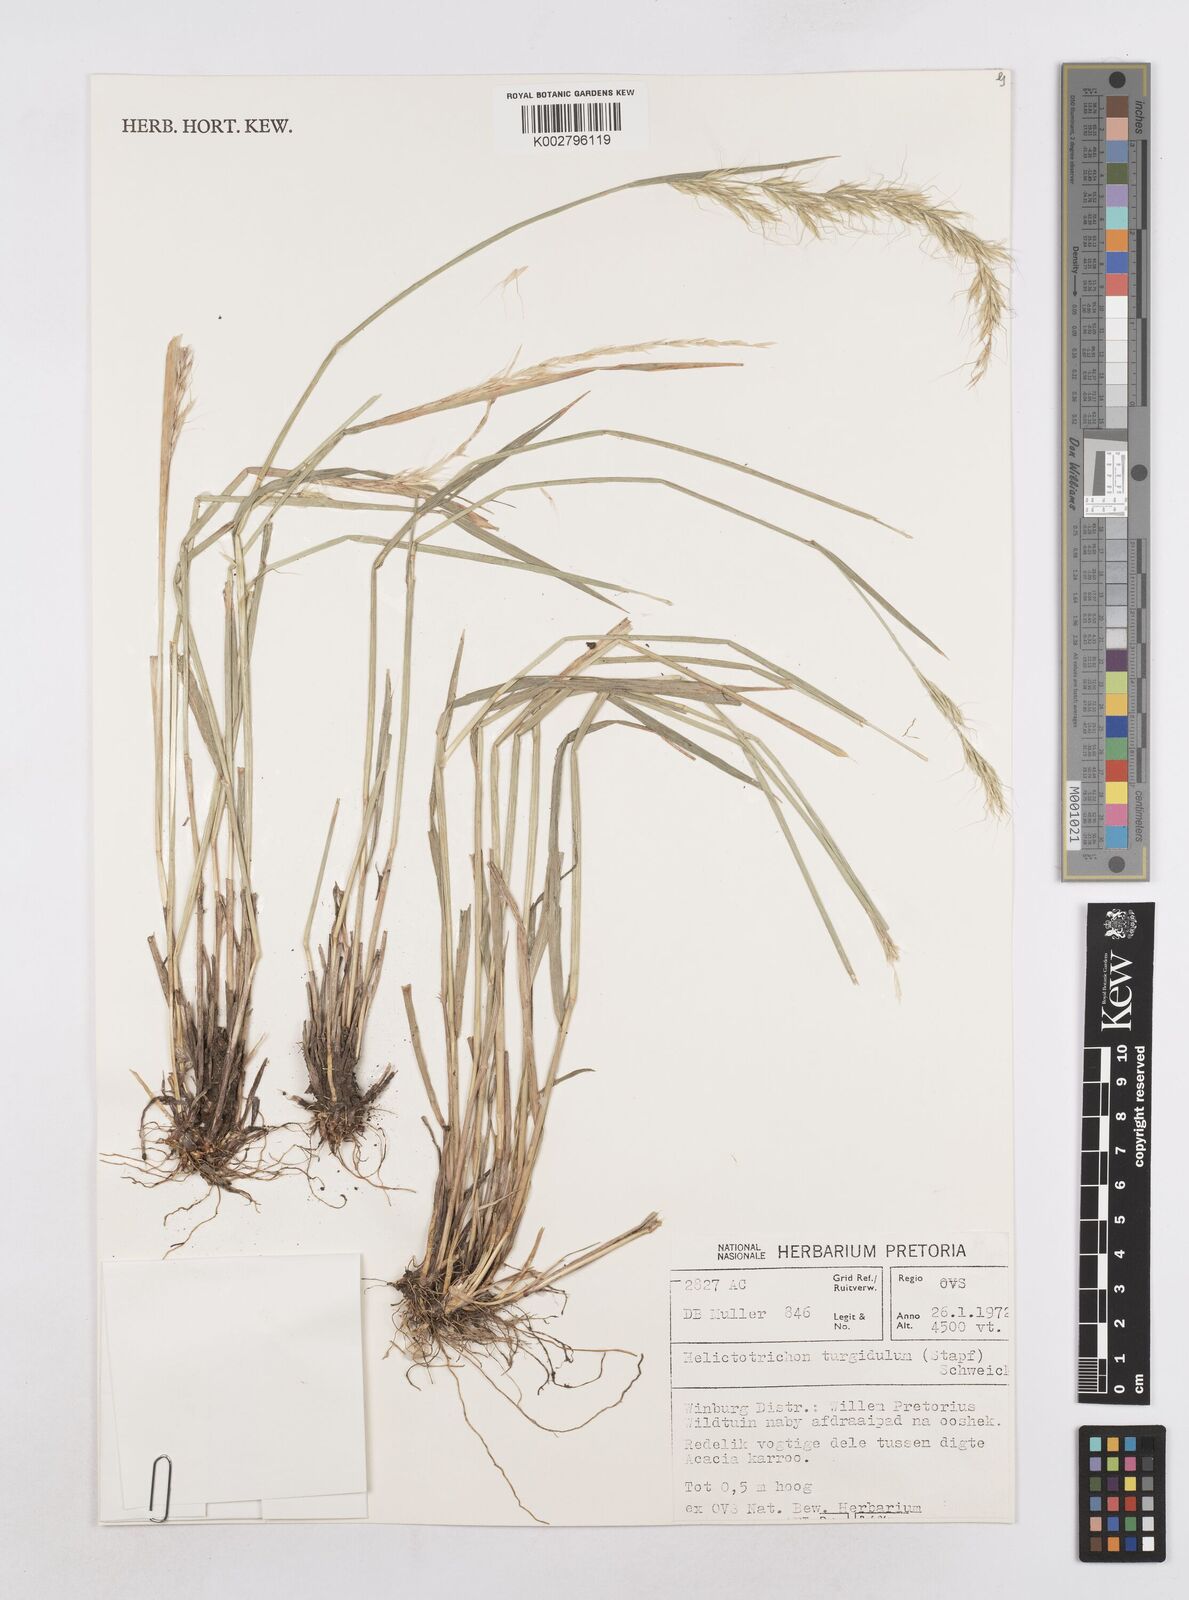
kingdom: Plantae
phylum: Tracheophyta
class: Liliopsida
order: Poales
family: Poaceae
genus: Trisetopsis
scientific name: Trisetopsis imberbis
